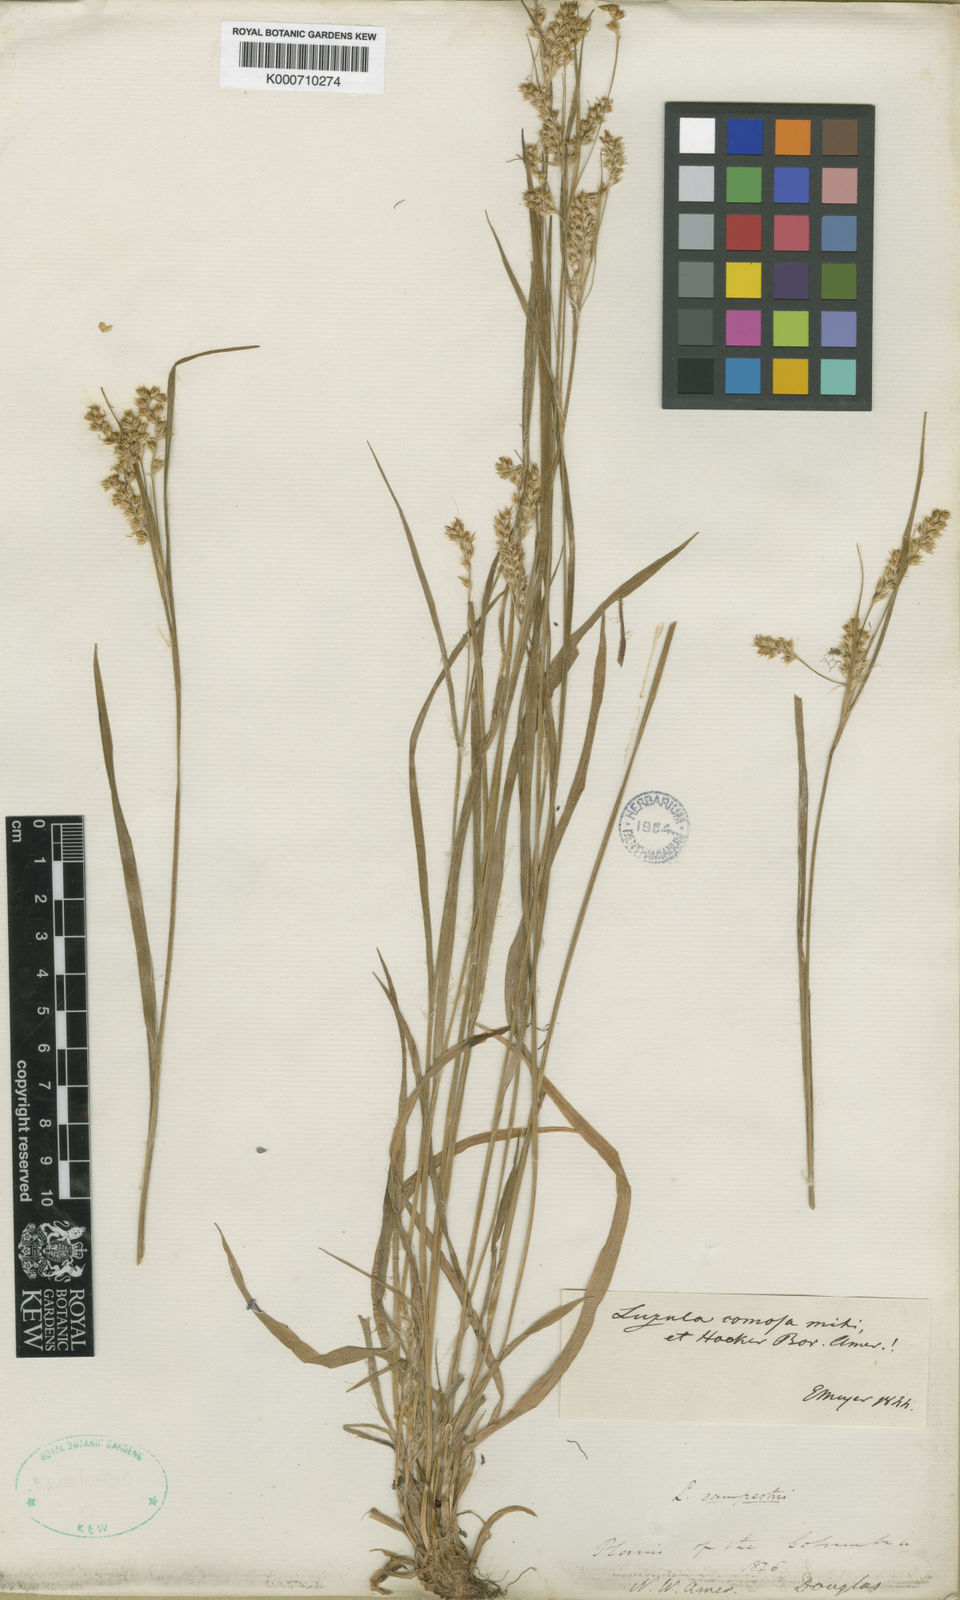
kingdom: Plantae
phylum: Tracheophyta
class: Liliopsida
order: Poales
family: Juncaceae
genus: Luzula
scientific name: Luzula comosa
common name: Pacific woodrush
